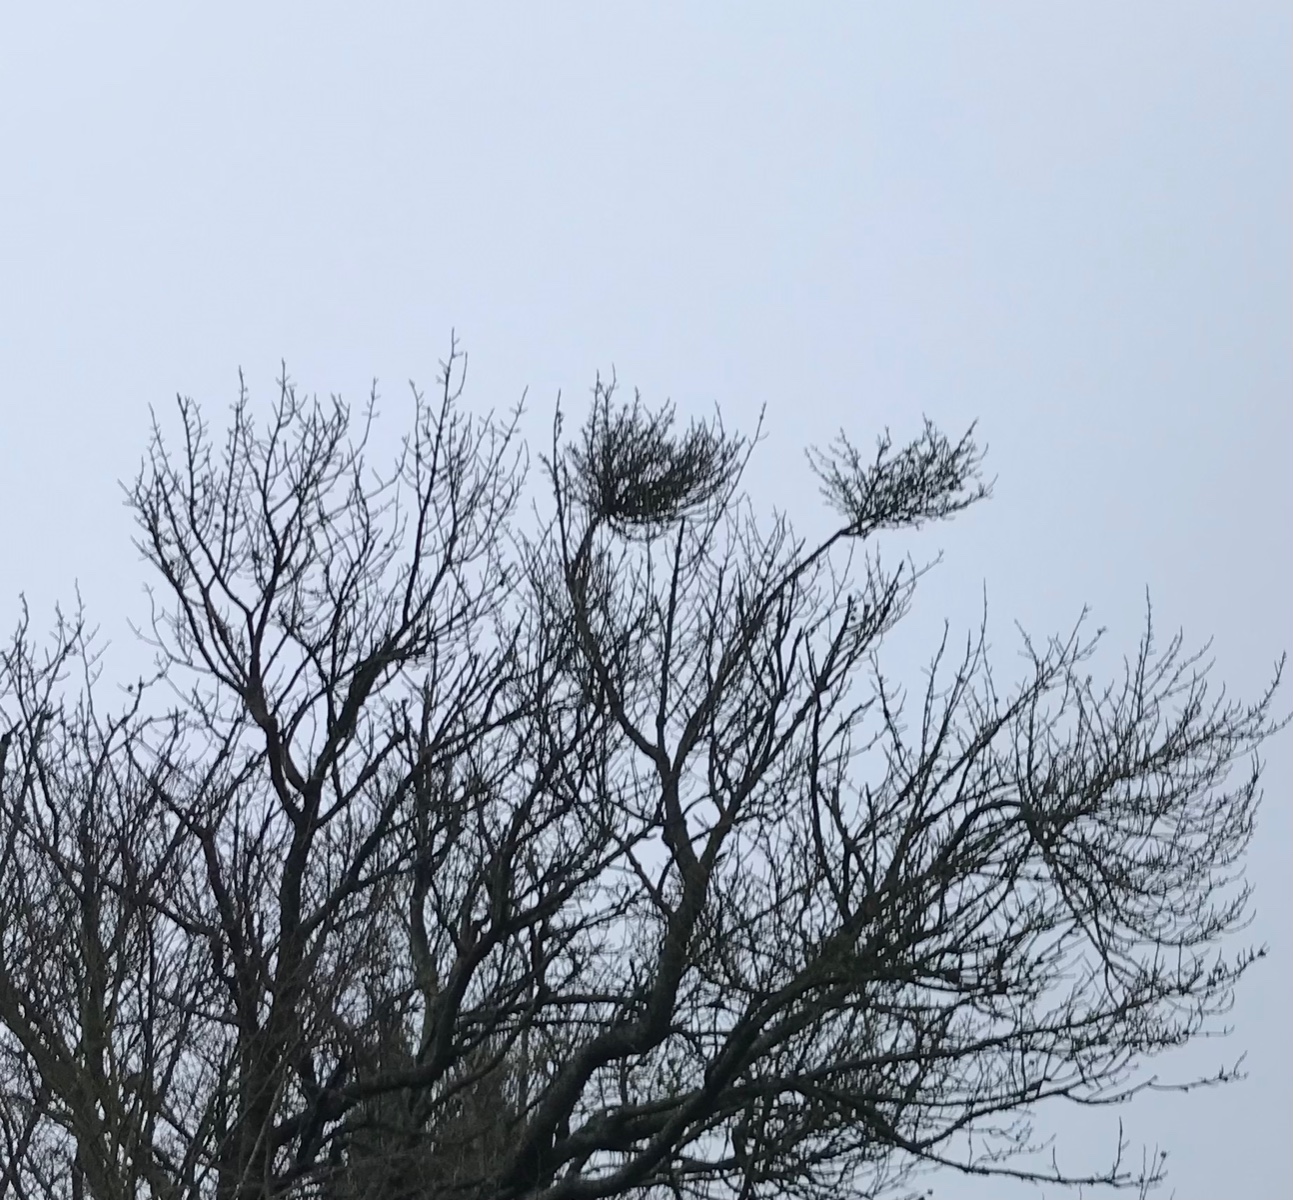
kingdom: Fungi
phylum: Ascomycota
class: Taphrinomycetes
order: Taphrinales
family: Taphrinaceae
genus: Taphrina
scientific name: Taphrina wiesneri
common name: Cherry leaf curl
